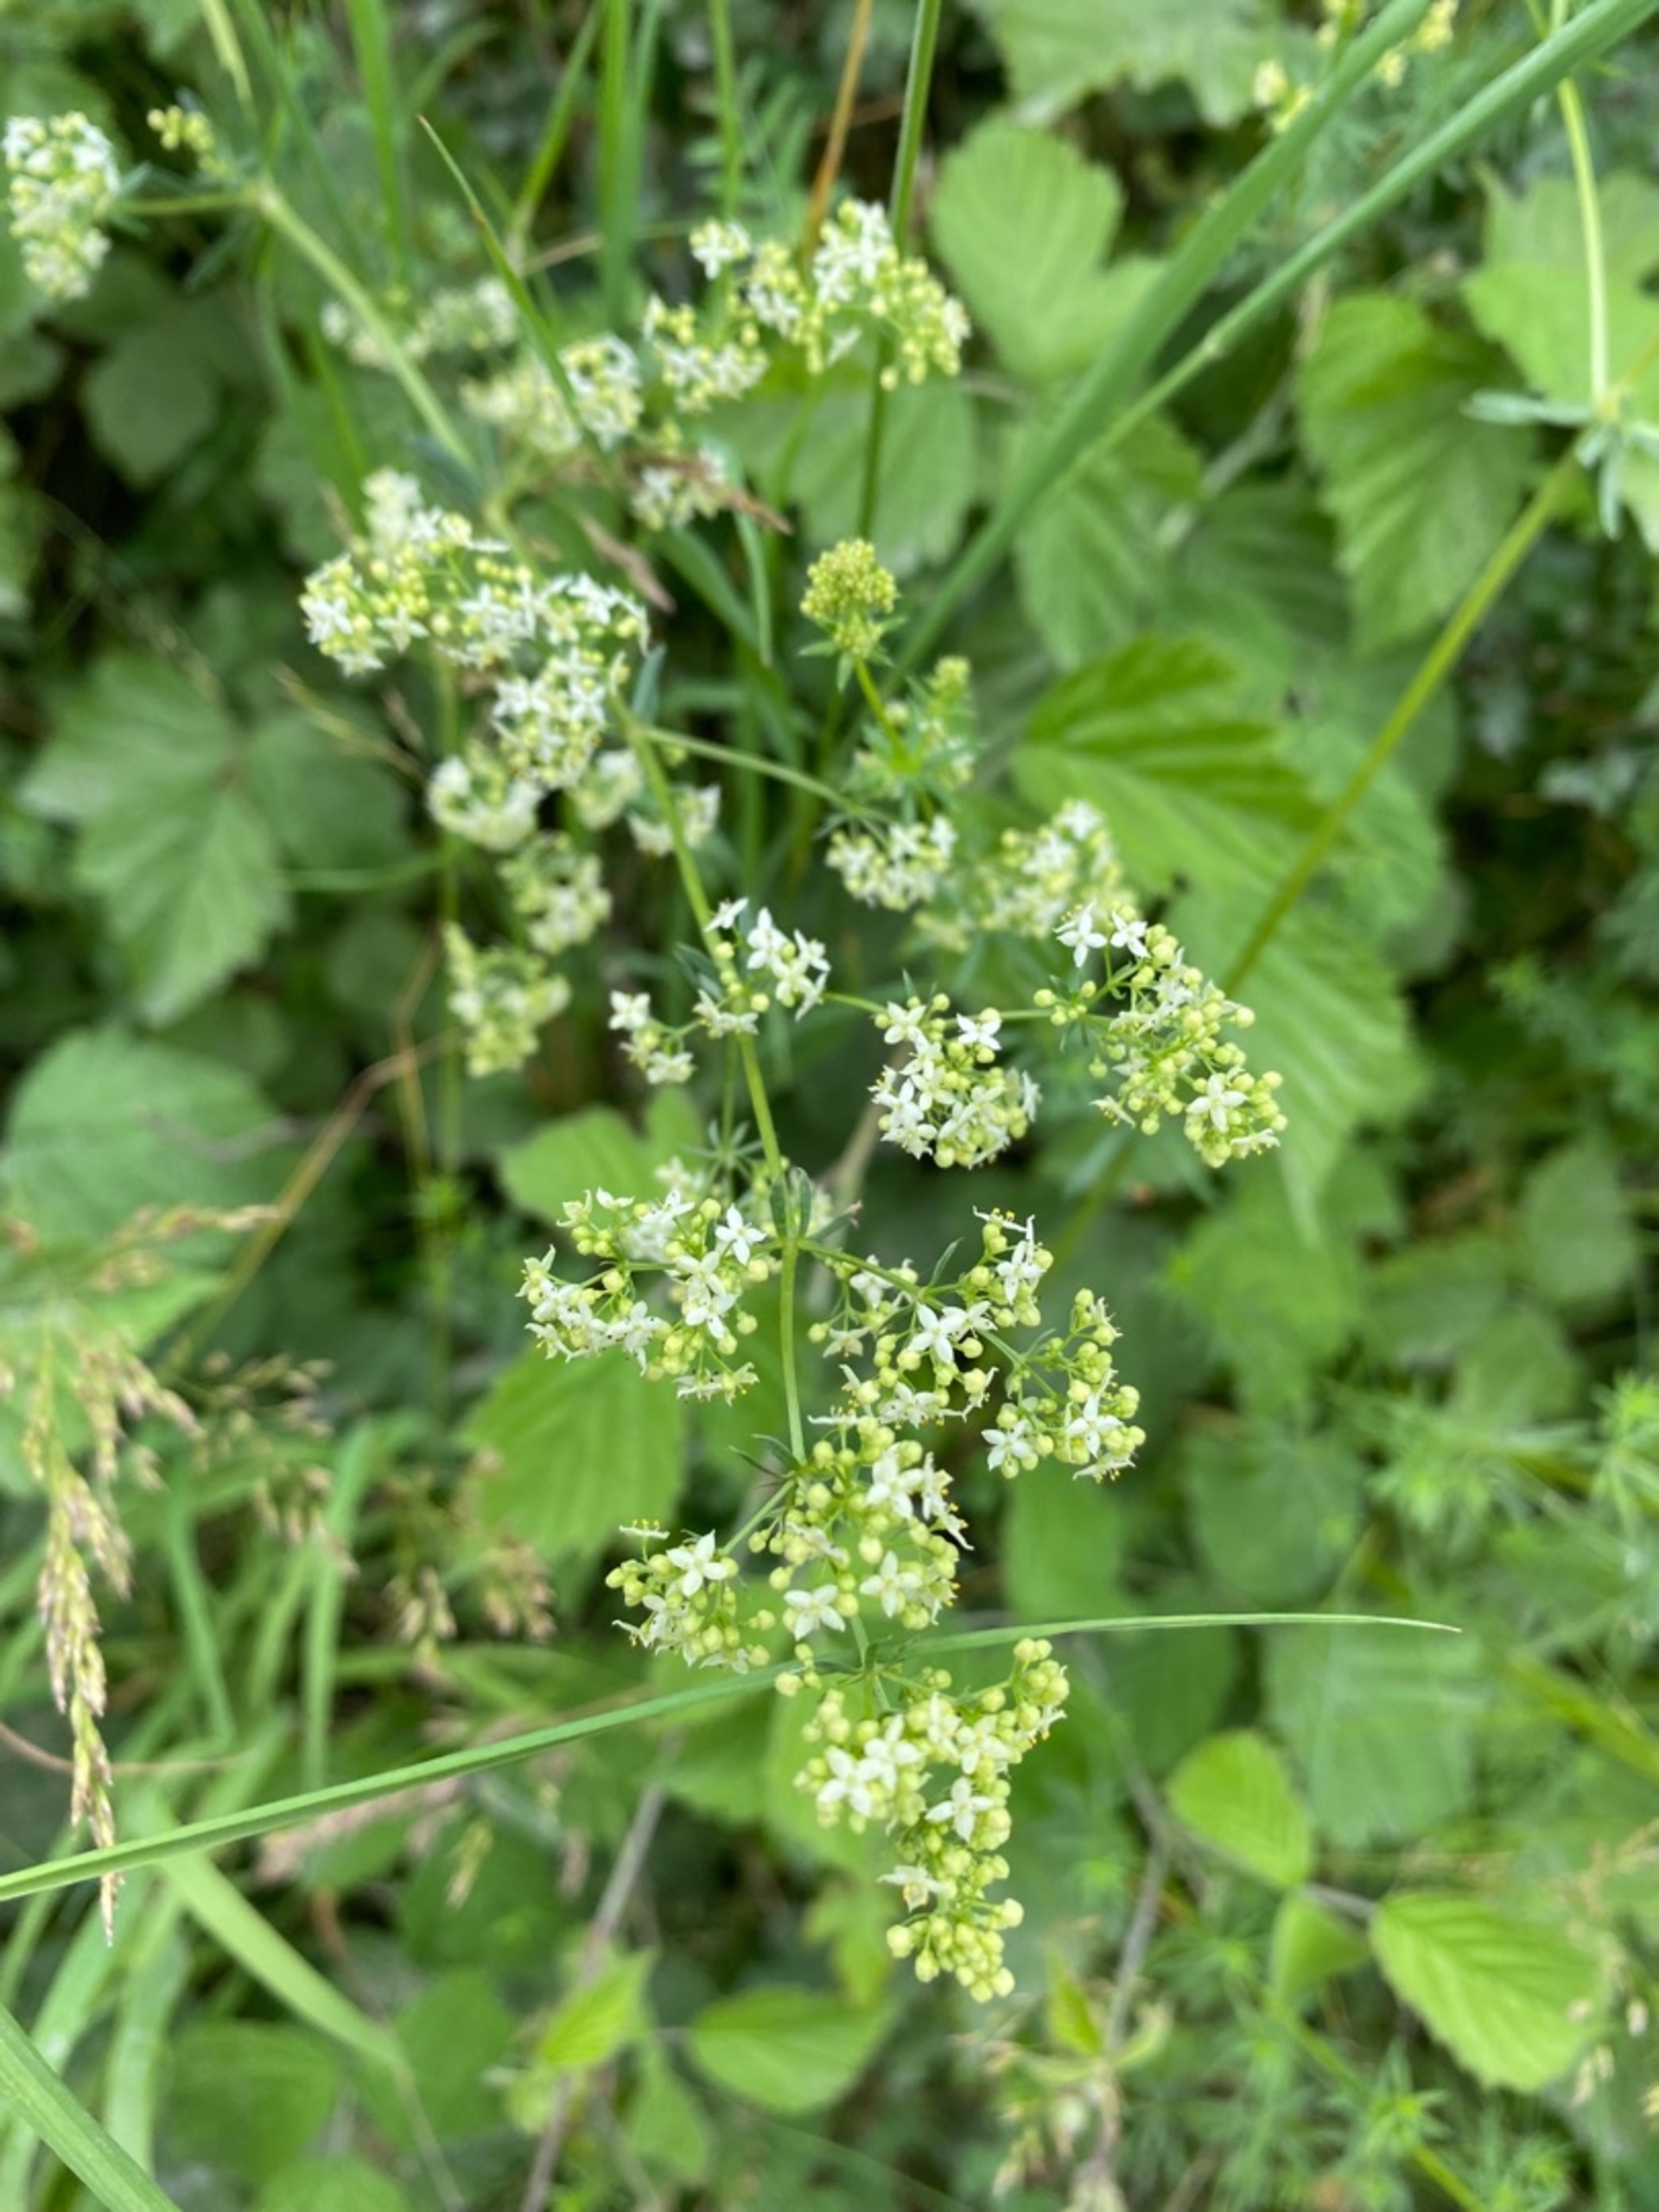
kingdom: Plantae
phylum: Tracheophyta
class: Magnoliopsida
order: Gentianales
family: Rubiaceae
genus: Galium
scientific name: Galium mollugo
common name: Hvid snerre
